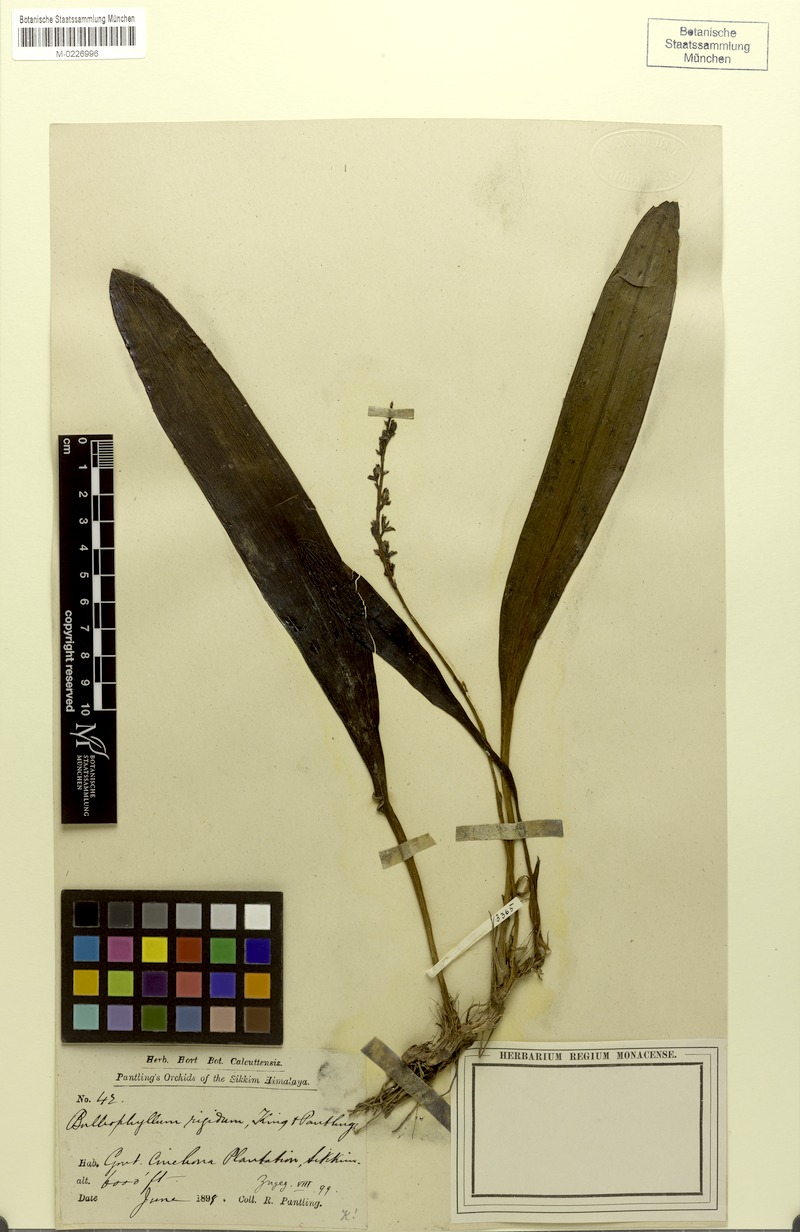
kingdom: Plantae
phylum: Tracheophyta
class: Liliopsida
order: Asparagales
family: Orchidaceae
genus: Bulbophyllum
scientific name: Bulbophyllum rigidum
